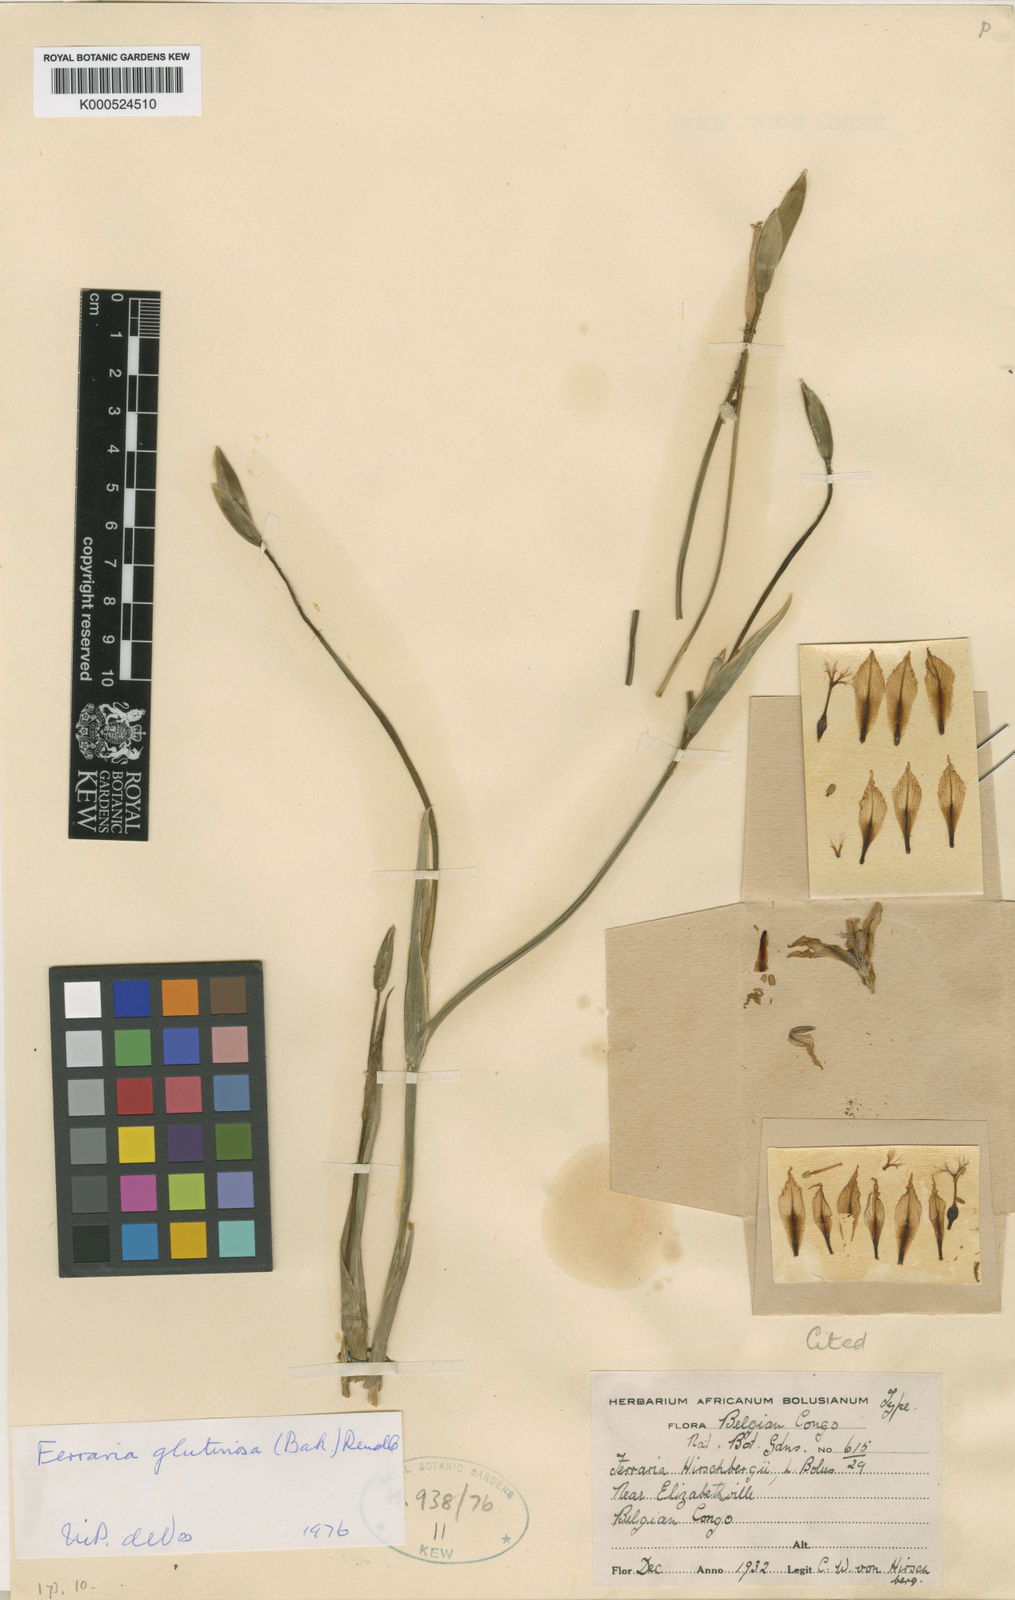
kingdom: Plantae
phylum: Tracheophyta
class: Liliopsida
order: Asparagales
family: Iridaceae
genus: Ferraria
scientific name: Ferraria glutinosa
